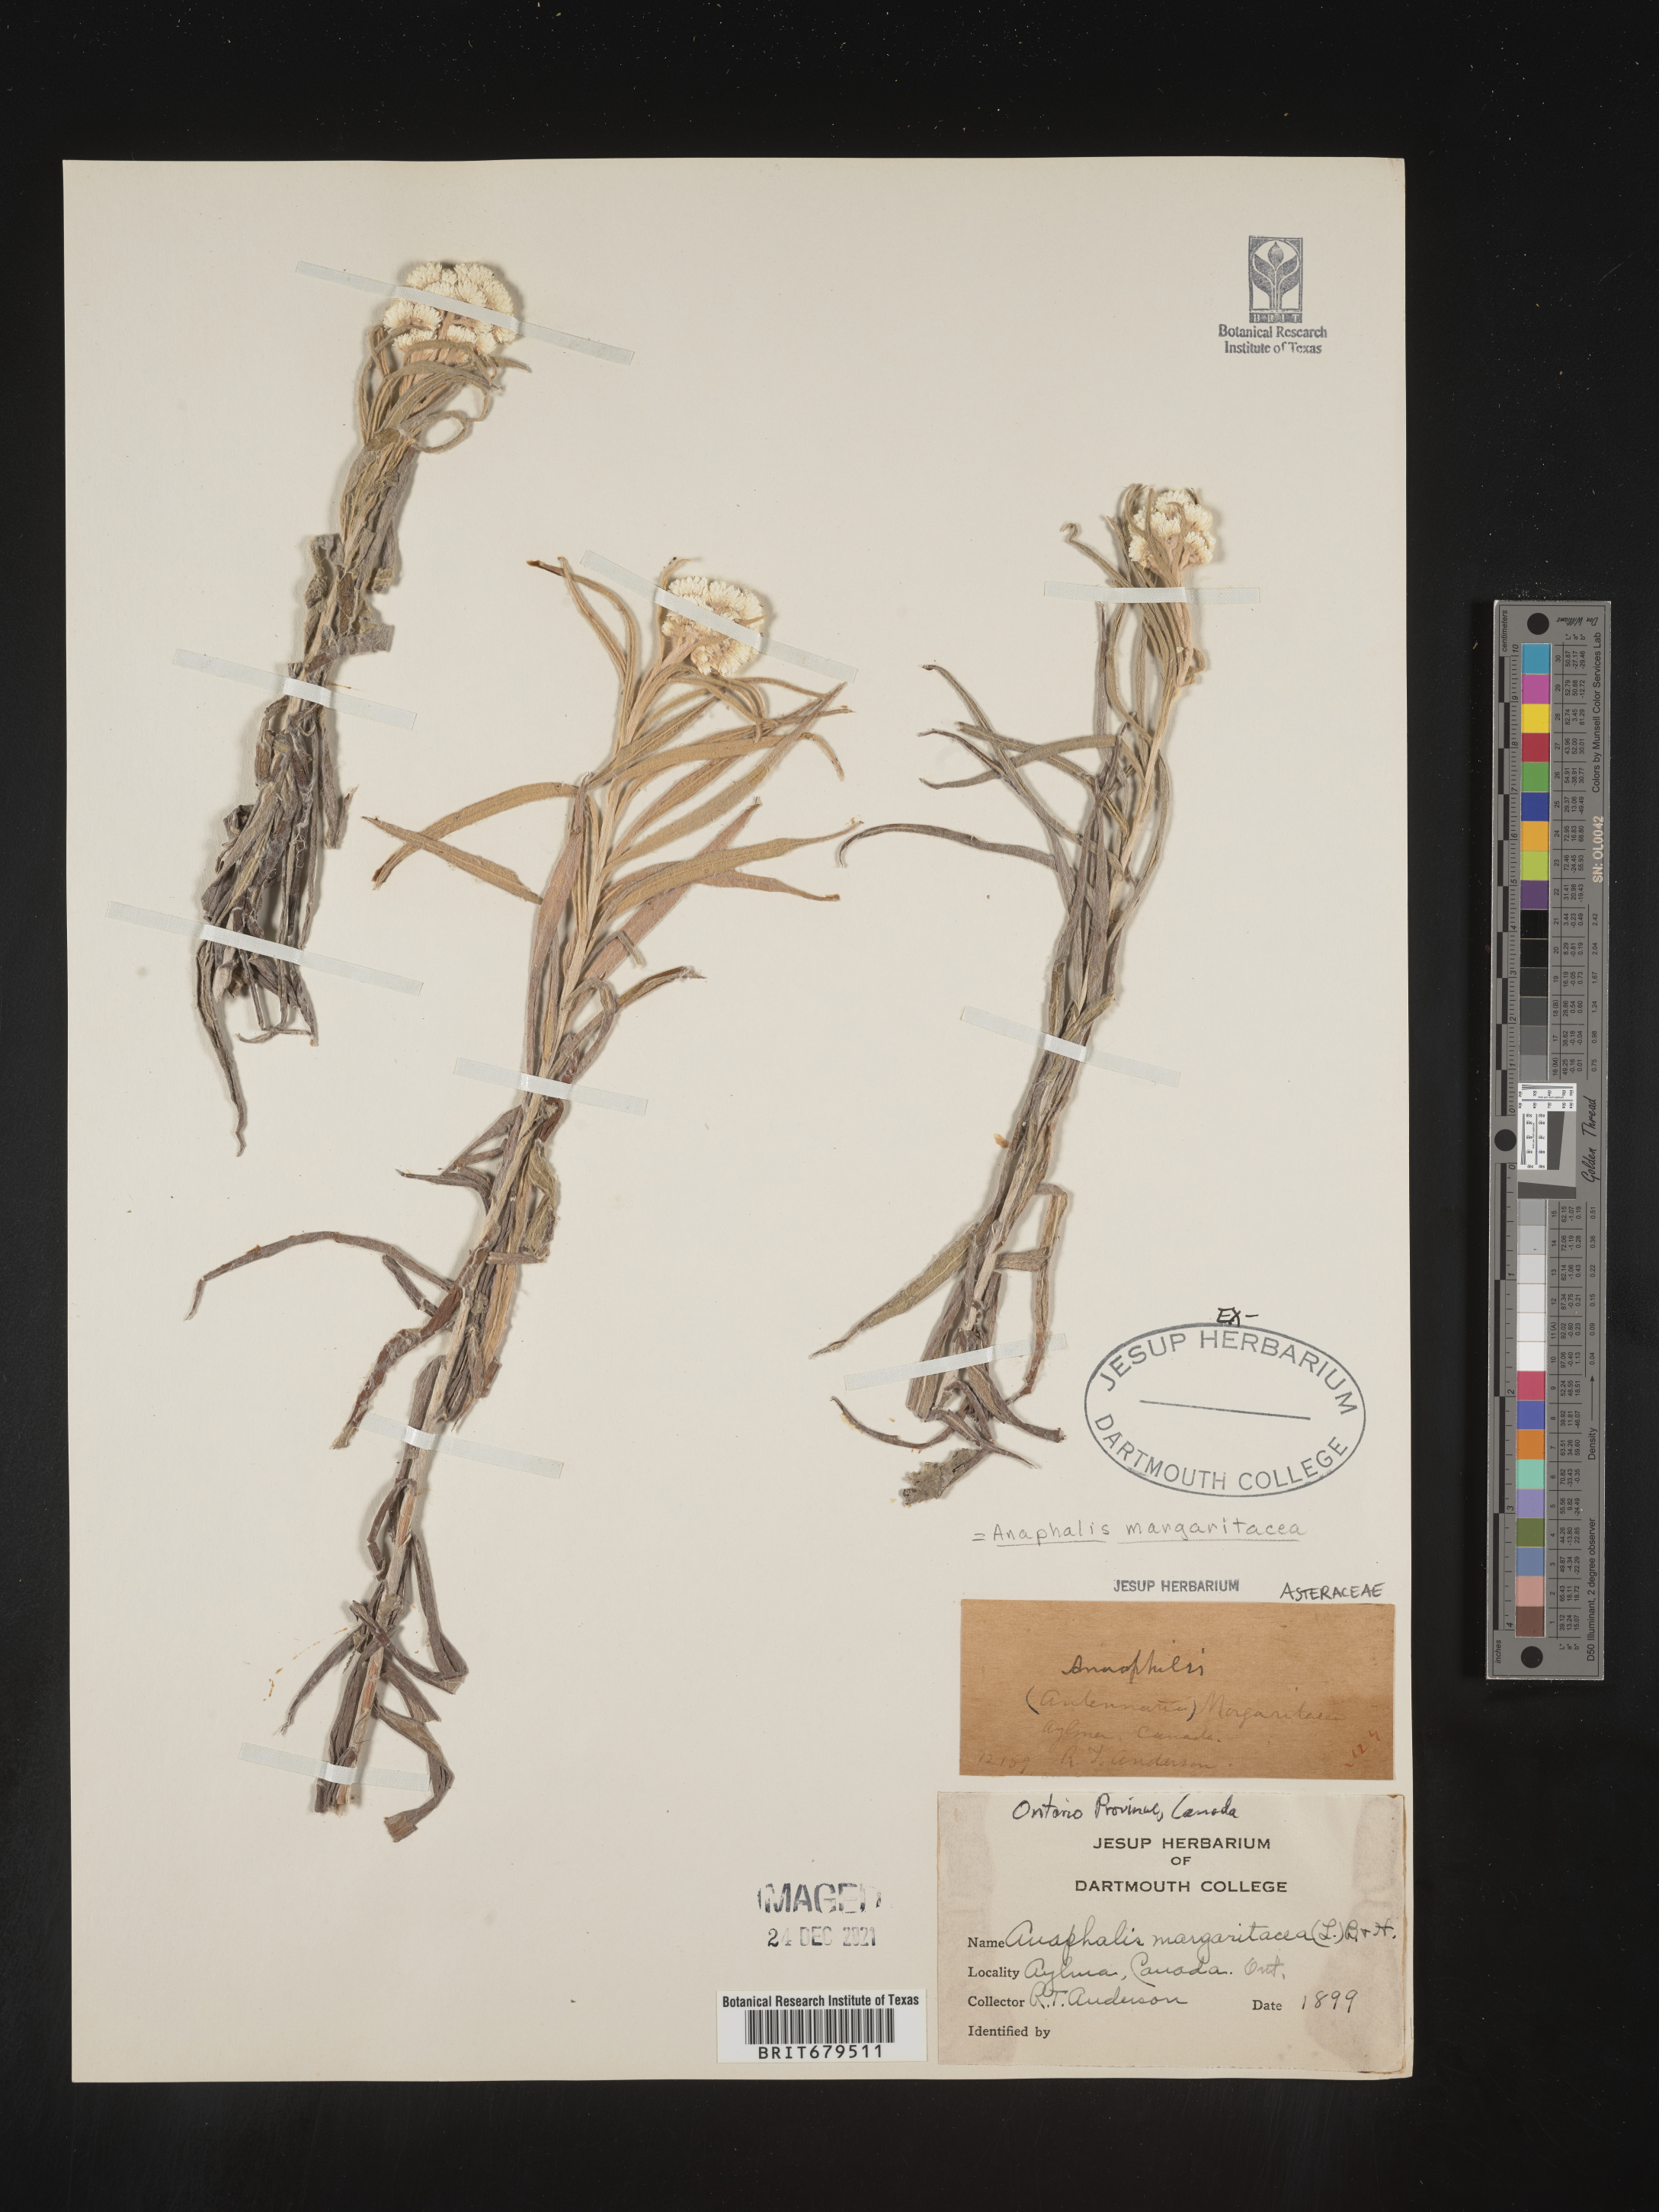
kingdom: Plantae
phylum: Tracheophyta
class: Magnoliopsida
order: Asterales
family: Asteraceae
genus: Anaphalis
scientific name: Anaphalis margaritacea
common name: Pearly everlasting
